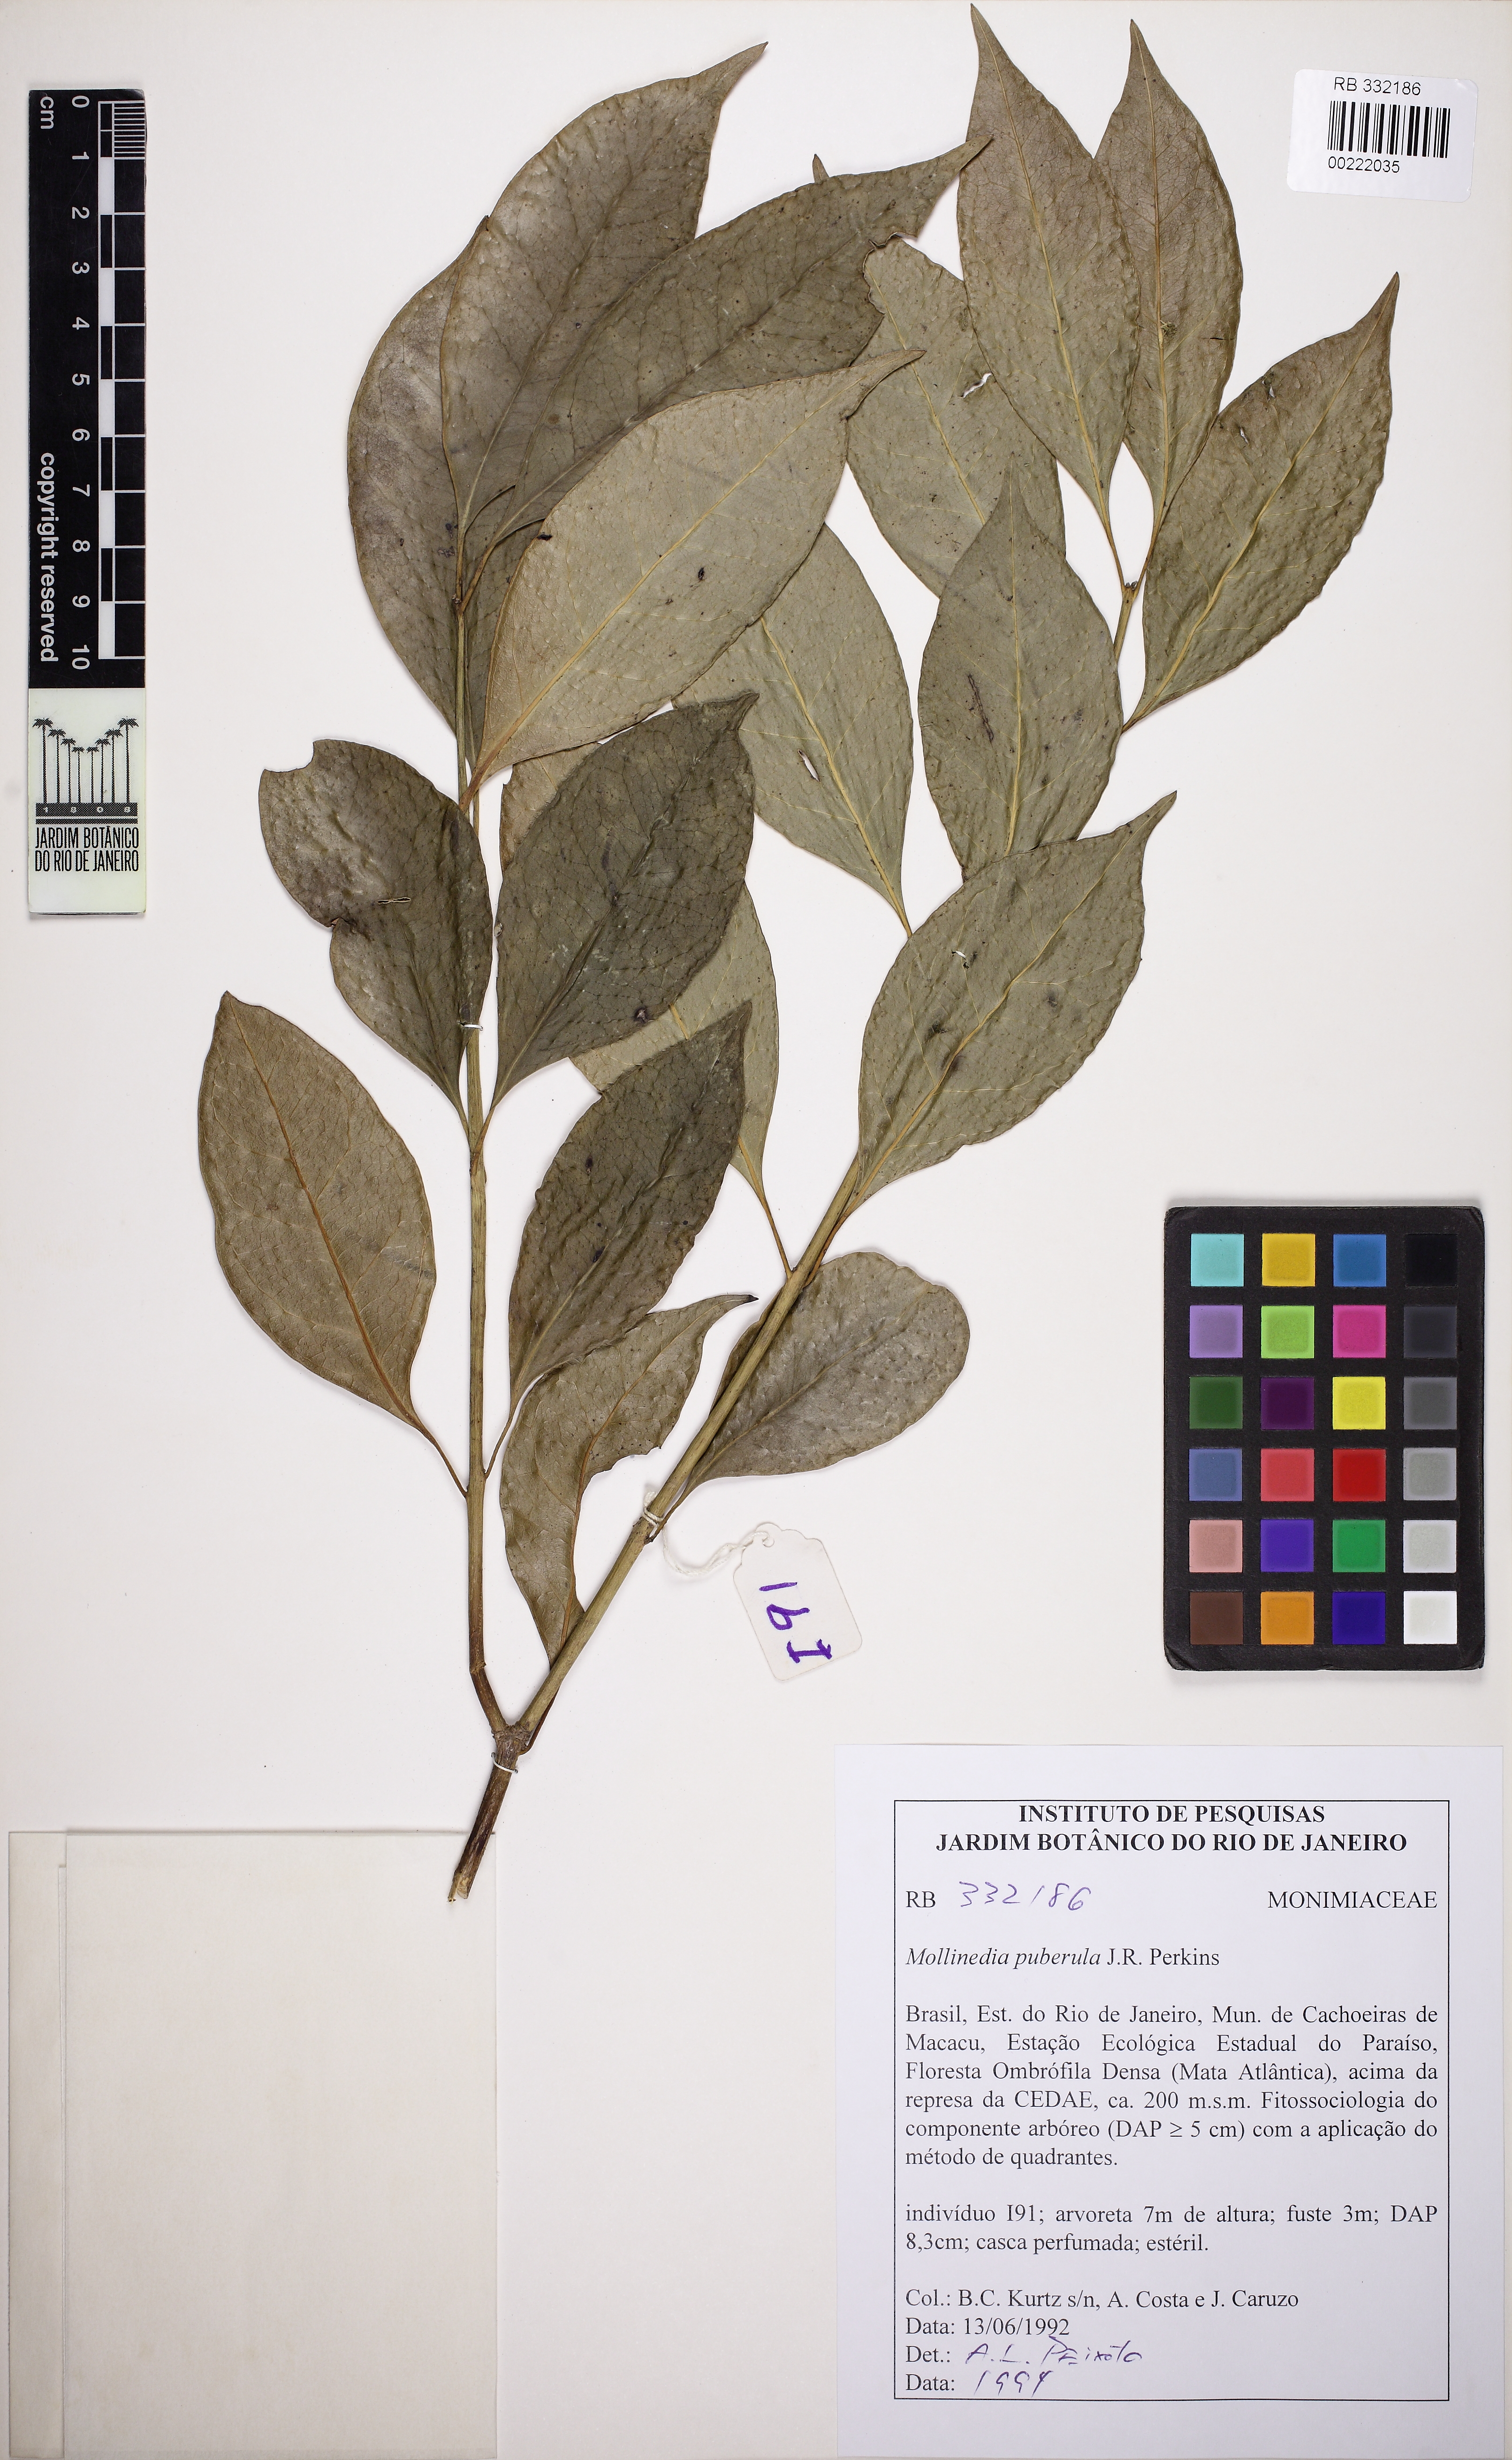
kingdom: Plantae
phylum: Tracheophyta
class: Magnoliopsida
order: Laurales
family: Monimiaceae
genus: Mollinedia
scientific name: Mollinedia oligantha
